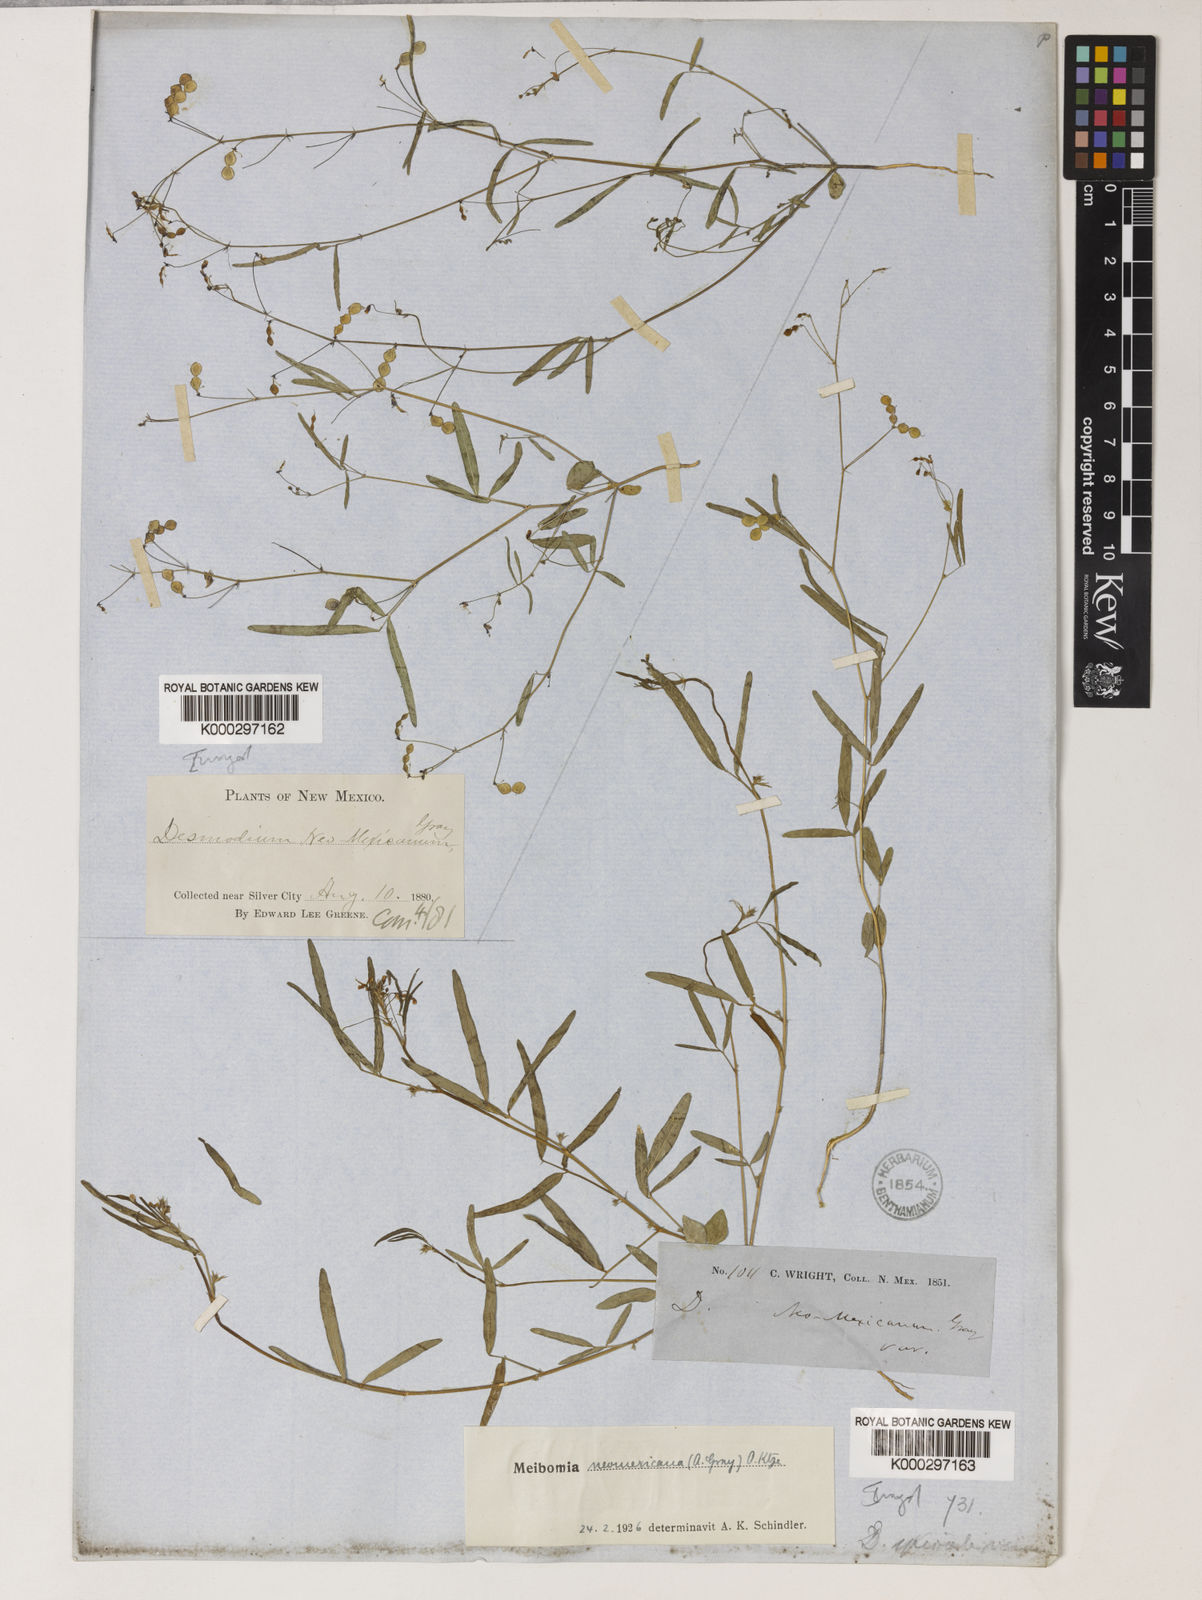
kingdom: Plantae
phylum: Tracheophyta
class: Magnoliopsida
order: Fabales
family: Fabaceae
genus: Desmodium
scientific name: Desmodium procumbens
